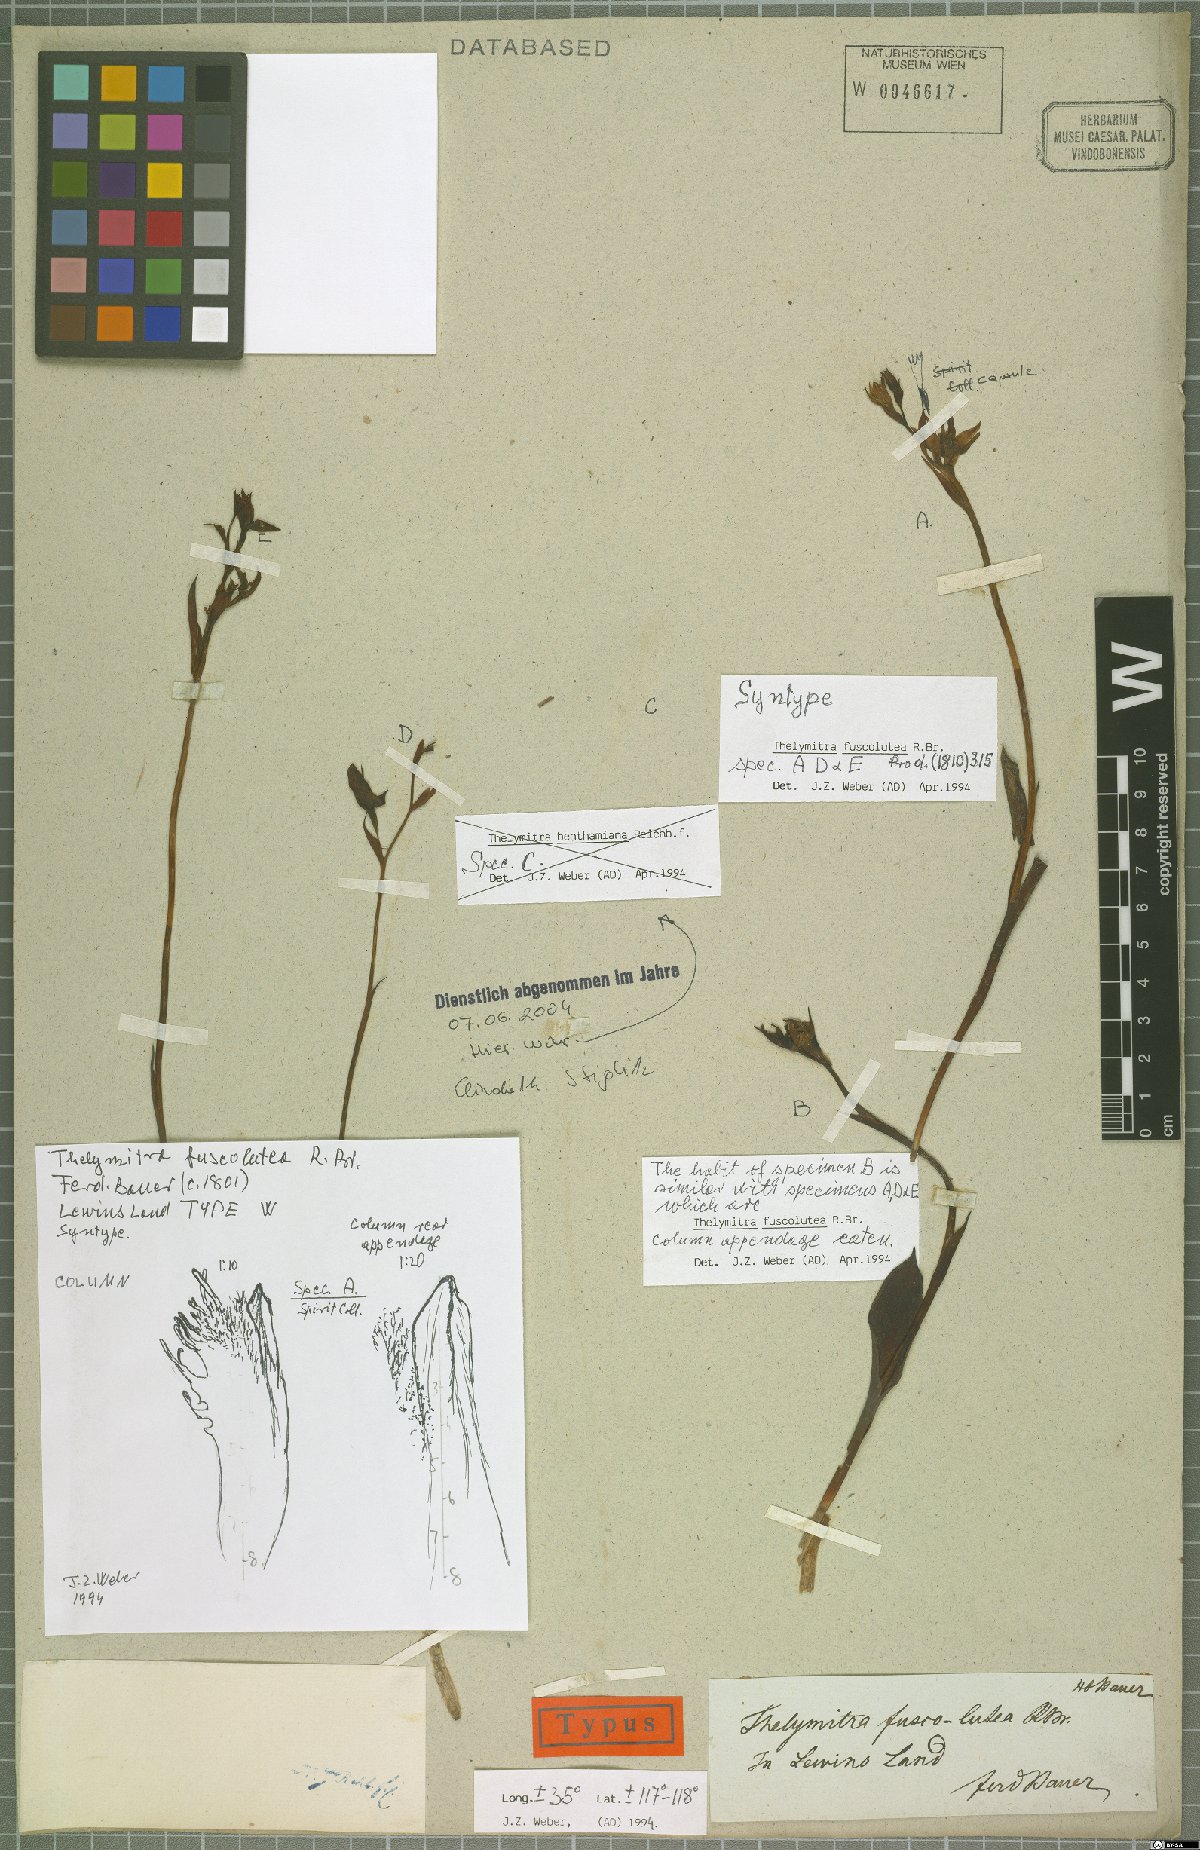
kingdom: Plantae
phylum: Tracheophyta
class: Liliopsida
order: Asparagales
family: Orchidaceae
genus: Thelymitra
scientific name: Thelymitra fuscolutea
